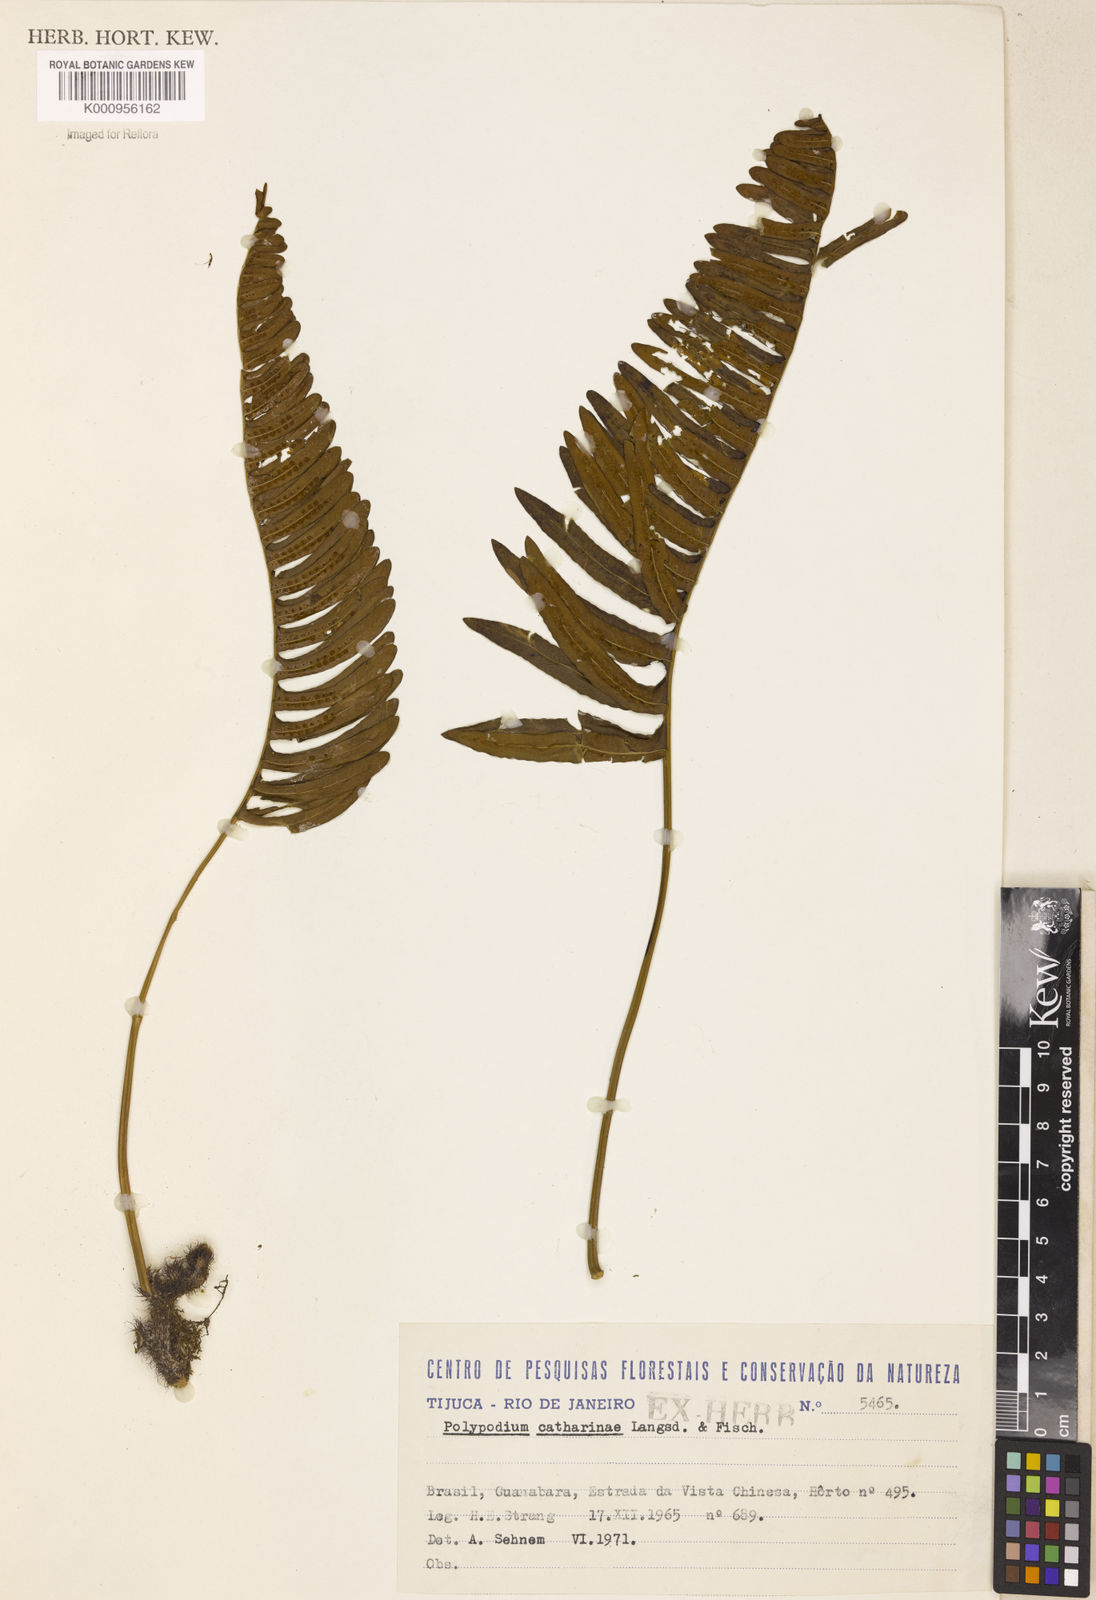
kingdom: Plantae
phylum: Tracheophyta
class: Polypodiopsida
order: Polypodiales
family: Polypodiaceae
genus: Serpocaulon
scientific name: Serpocaulon catharinae
